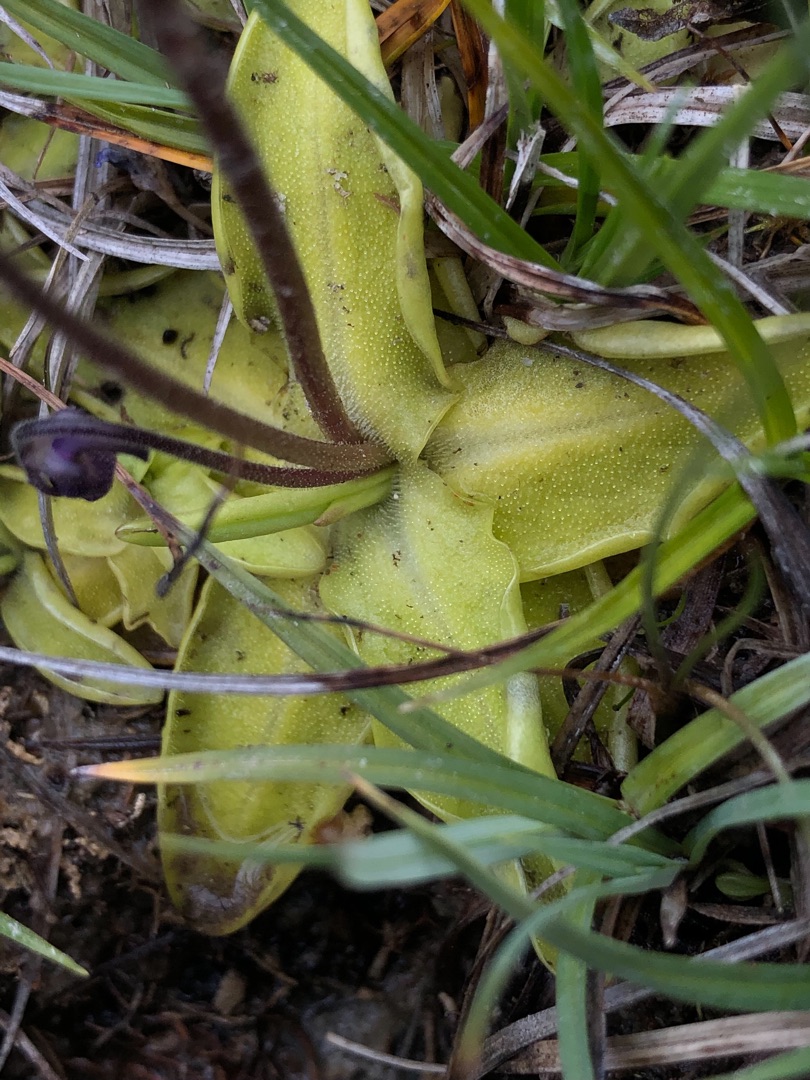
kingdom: Plantae
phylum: Tracheophyta
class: Magnoliopsida
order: Lamiales
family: Lentibulariaceae
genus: Pinguicula
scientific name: Pinguicula vulgaris
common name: Vibefedt
